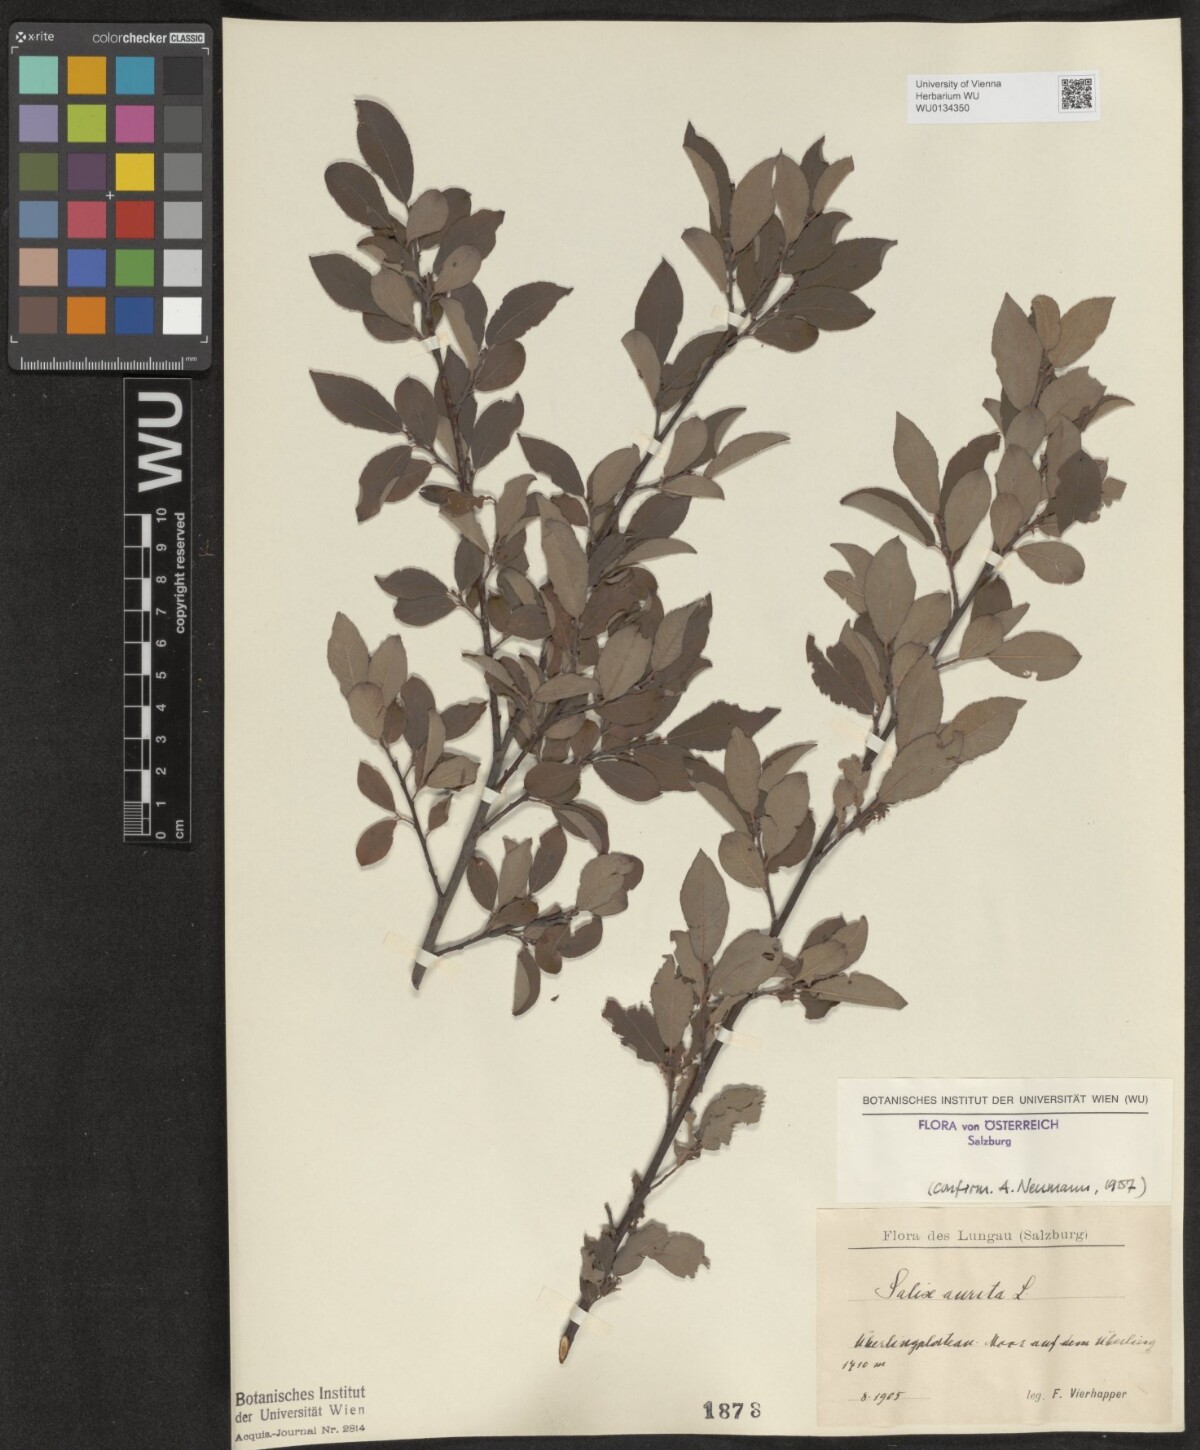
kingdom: Plantae
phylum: Tracheophyta
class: Magnoliopsida
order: Malpighiales
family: Salicaceae
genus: Salix
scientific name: Salix aurita
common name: Eared willow
